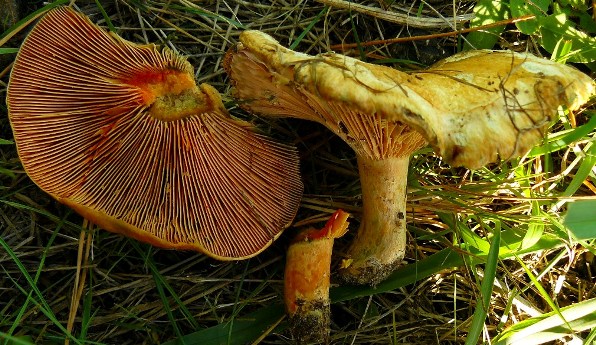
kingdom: Fungi
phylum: Basidiomycota
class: Agaricomycetes
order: Russulales
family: Russulaceae
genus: Lactarius
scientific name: Lactarius deliciosus
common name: velsmagende mælkehat
